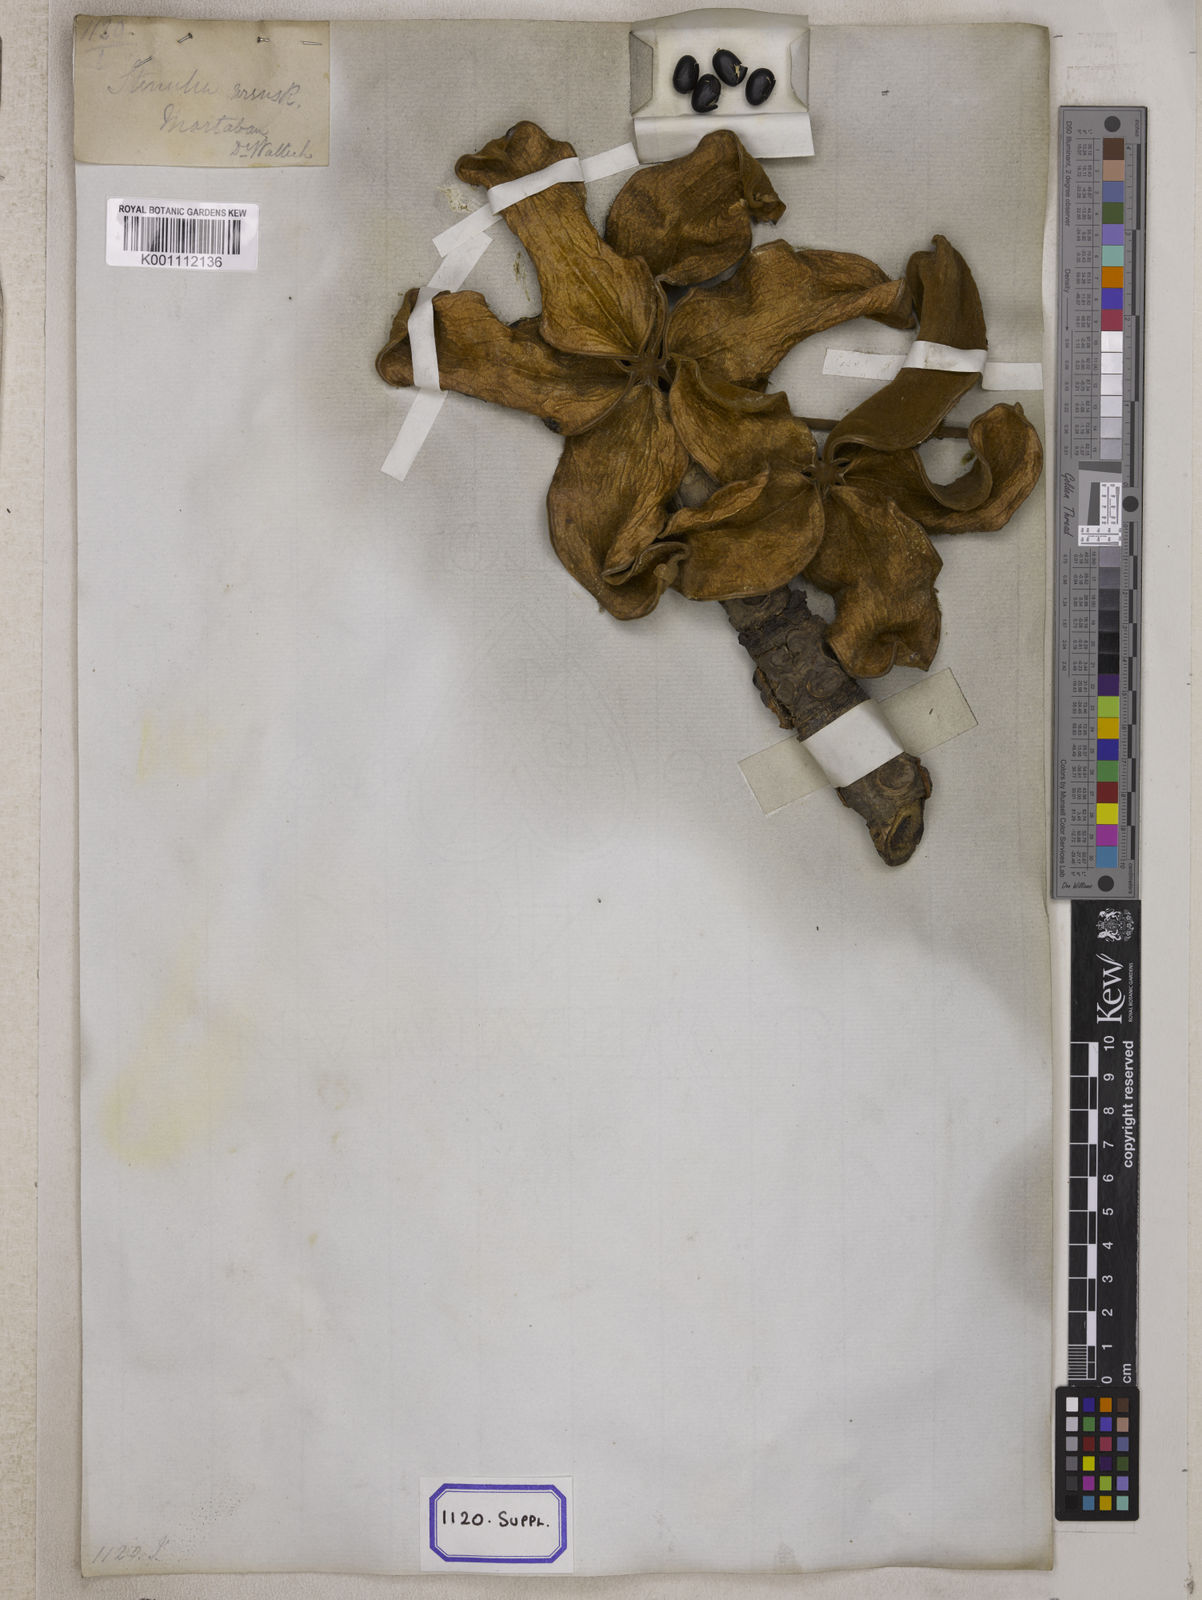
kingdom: Plantae
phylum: Tracheophyta
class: Magnoliopsida
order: Malvales
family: Malvaceae
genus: Sterculia
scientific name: Sterculia urens
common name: Indian-tragacanth
